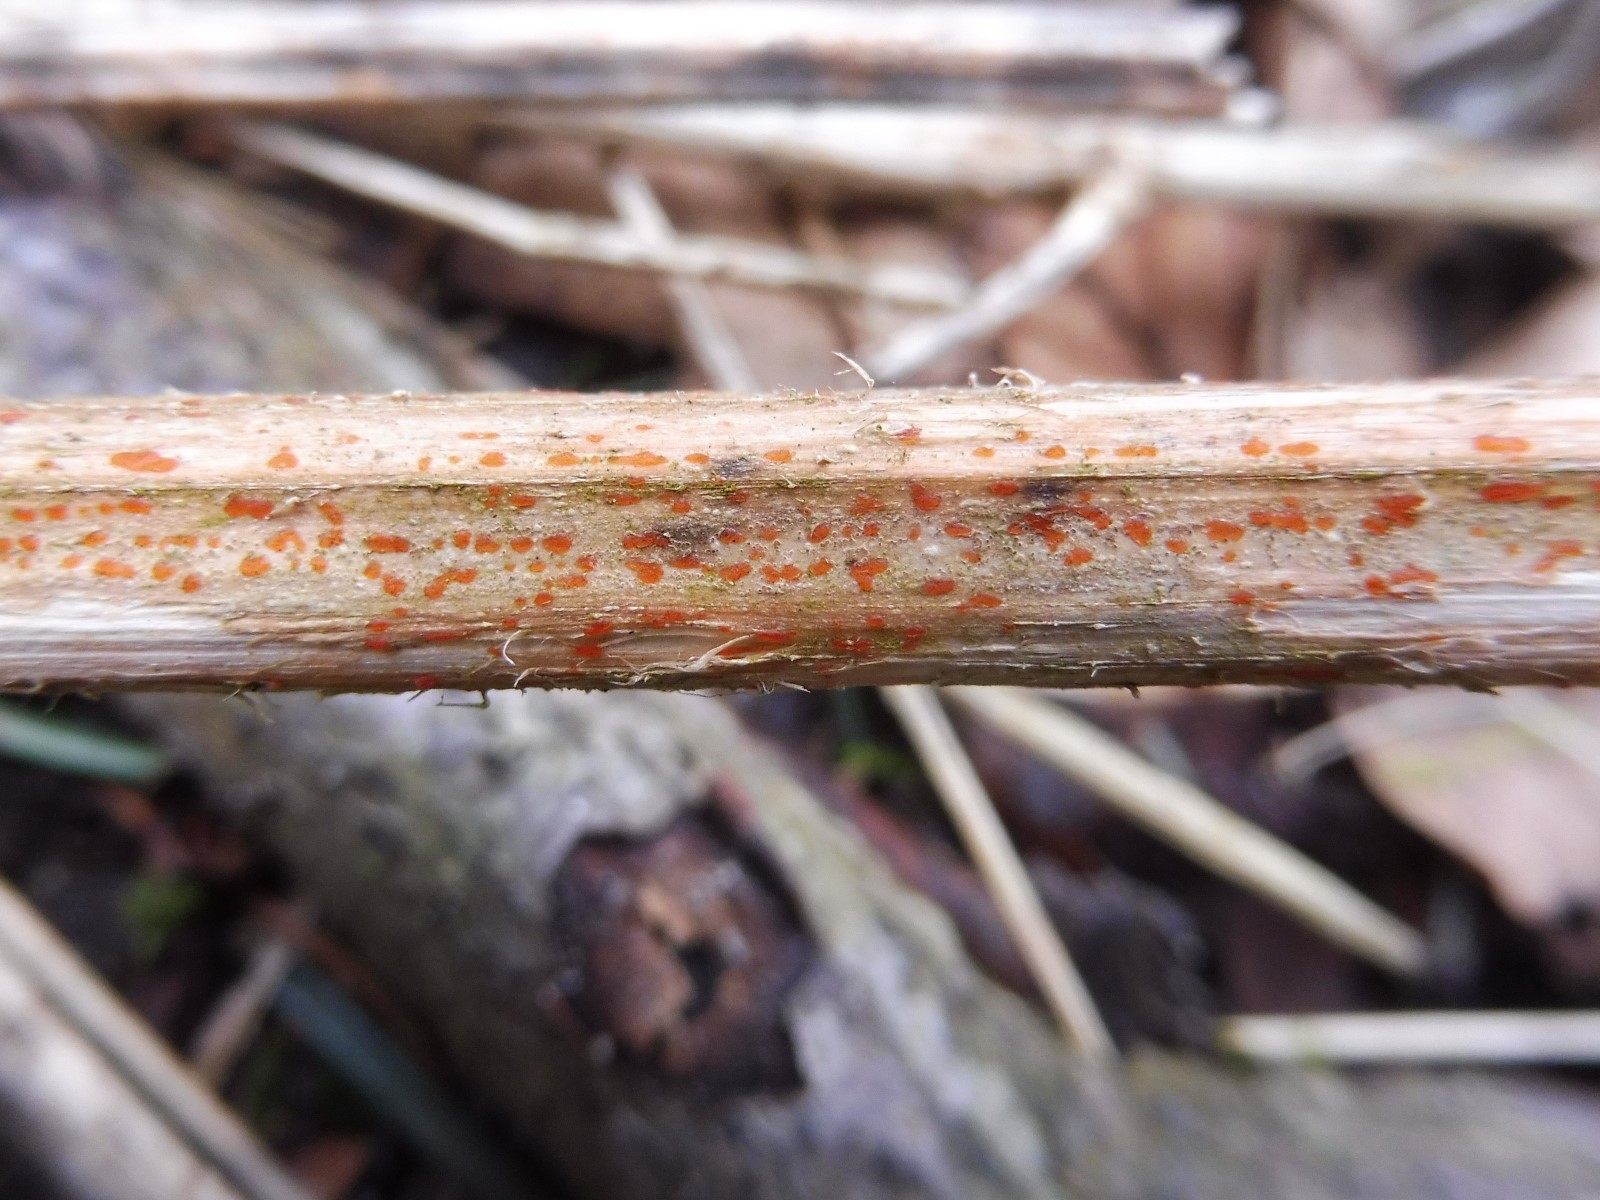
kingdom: Fungi
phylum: Ascomycota
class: Leotiomycetes
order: Helotiales
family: Calloriaceae
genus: Calloria
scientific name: Calloria urticae
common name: nælde-orangeskive
